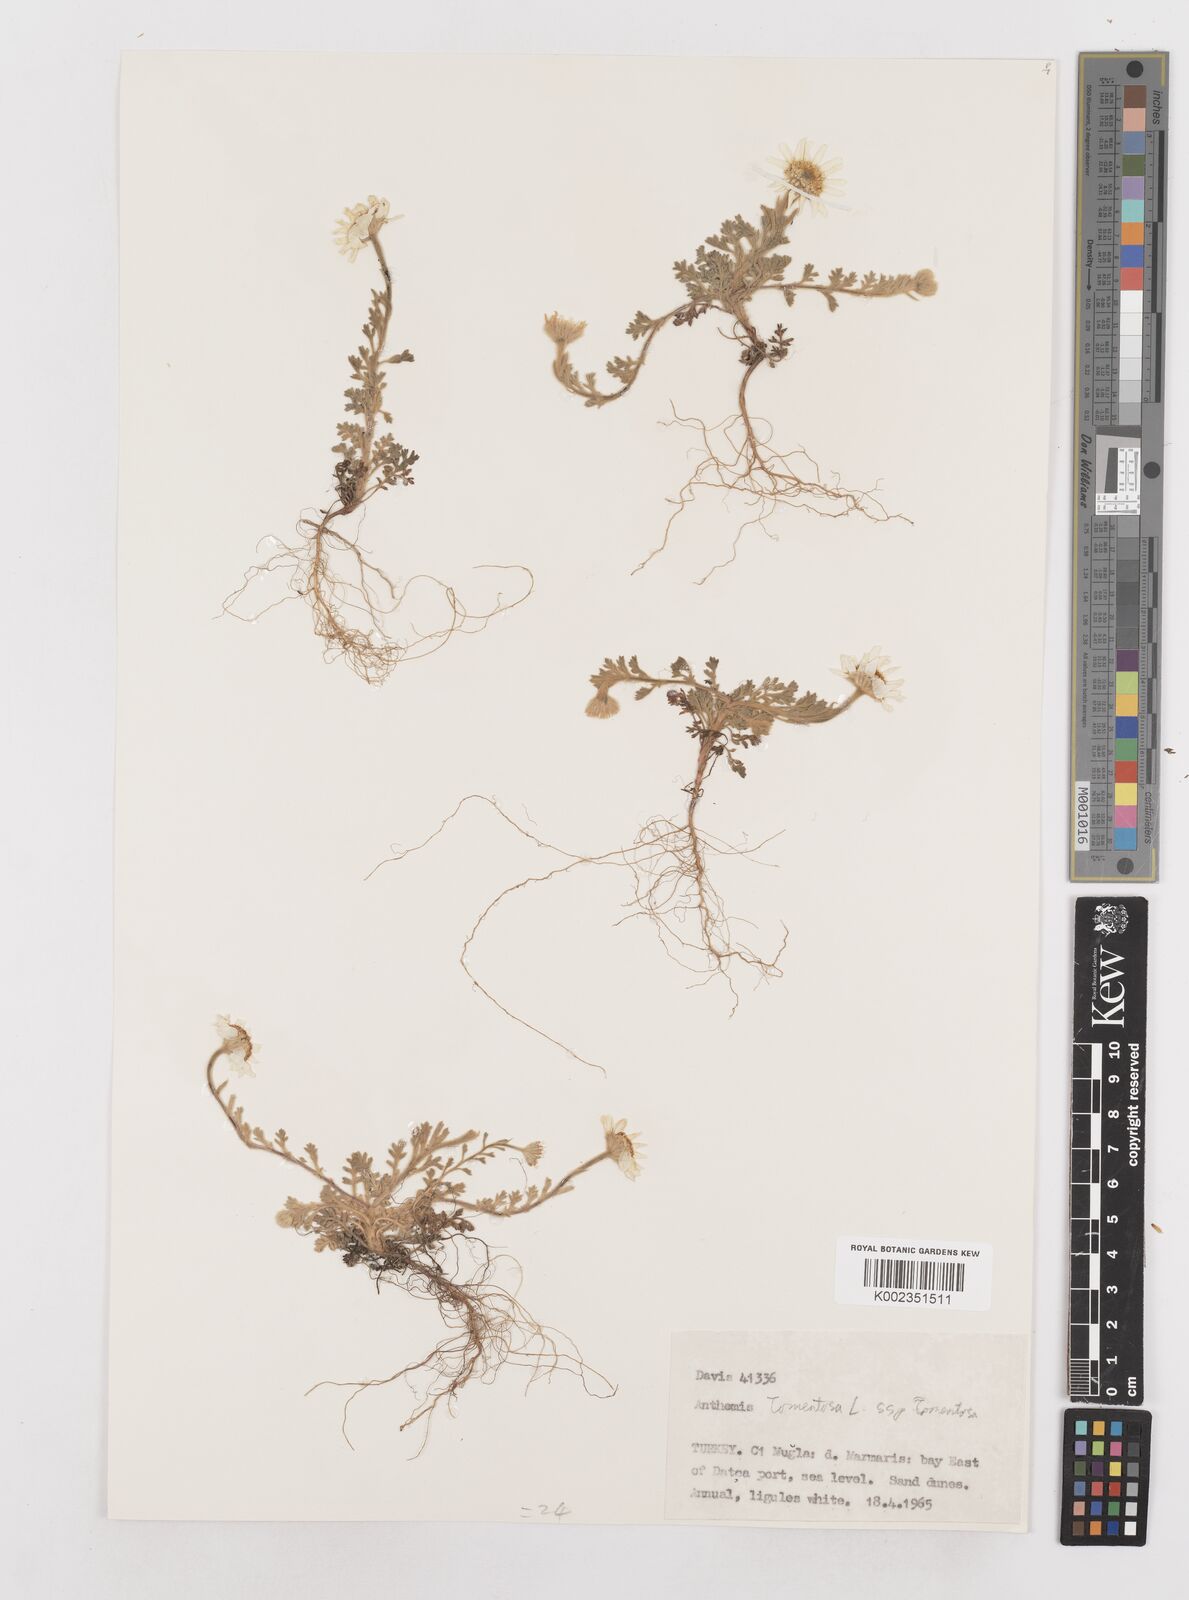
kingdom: Plantae
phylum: Tracheophyta
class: Magnoliopsida
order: Asterales
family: Asteraceae
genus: Anthemis
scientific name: Anthemis tomentosa
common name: Woolly chamomile
